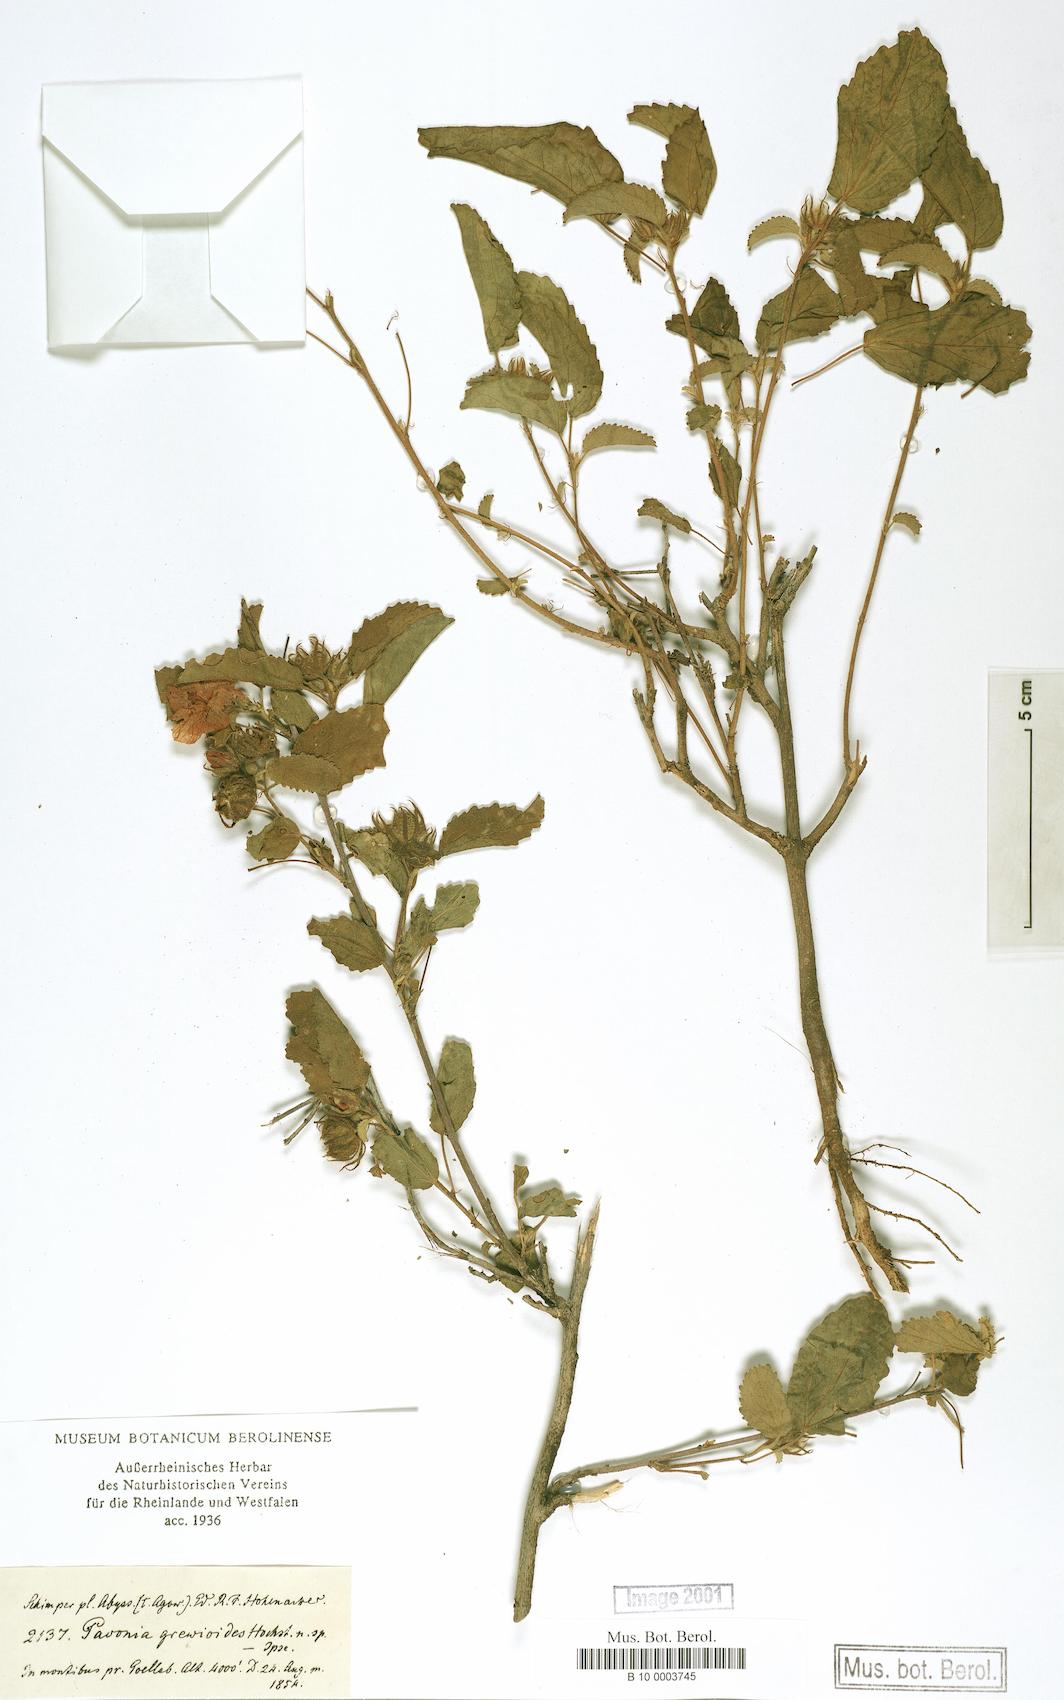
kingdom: Plantae
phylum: Tracheophyta
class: Magnoliopsida
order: Malvales
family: Malvaceae
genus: Pavonia
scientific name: Pavonia propinqua
